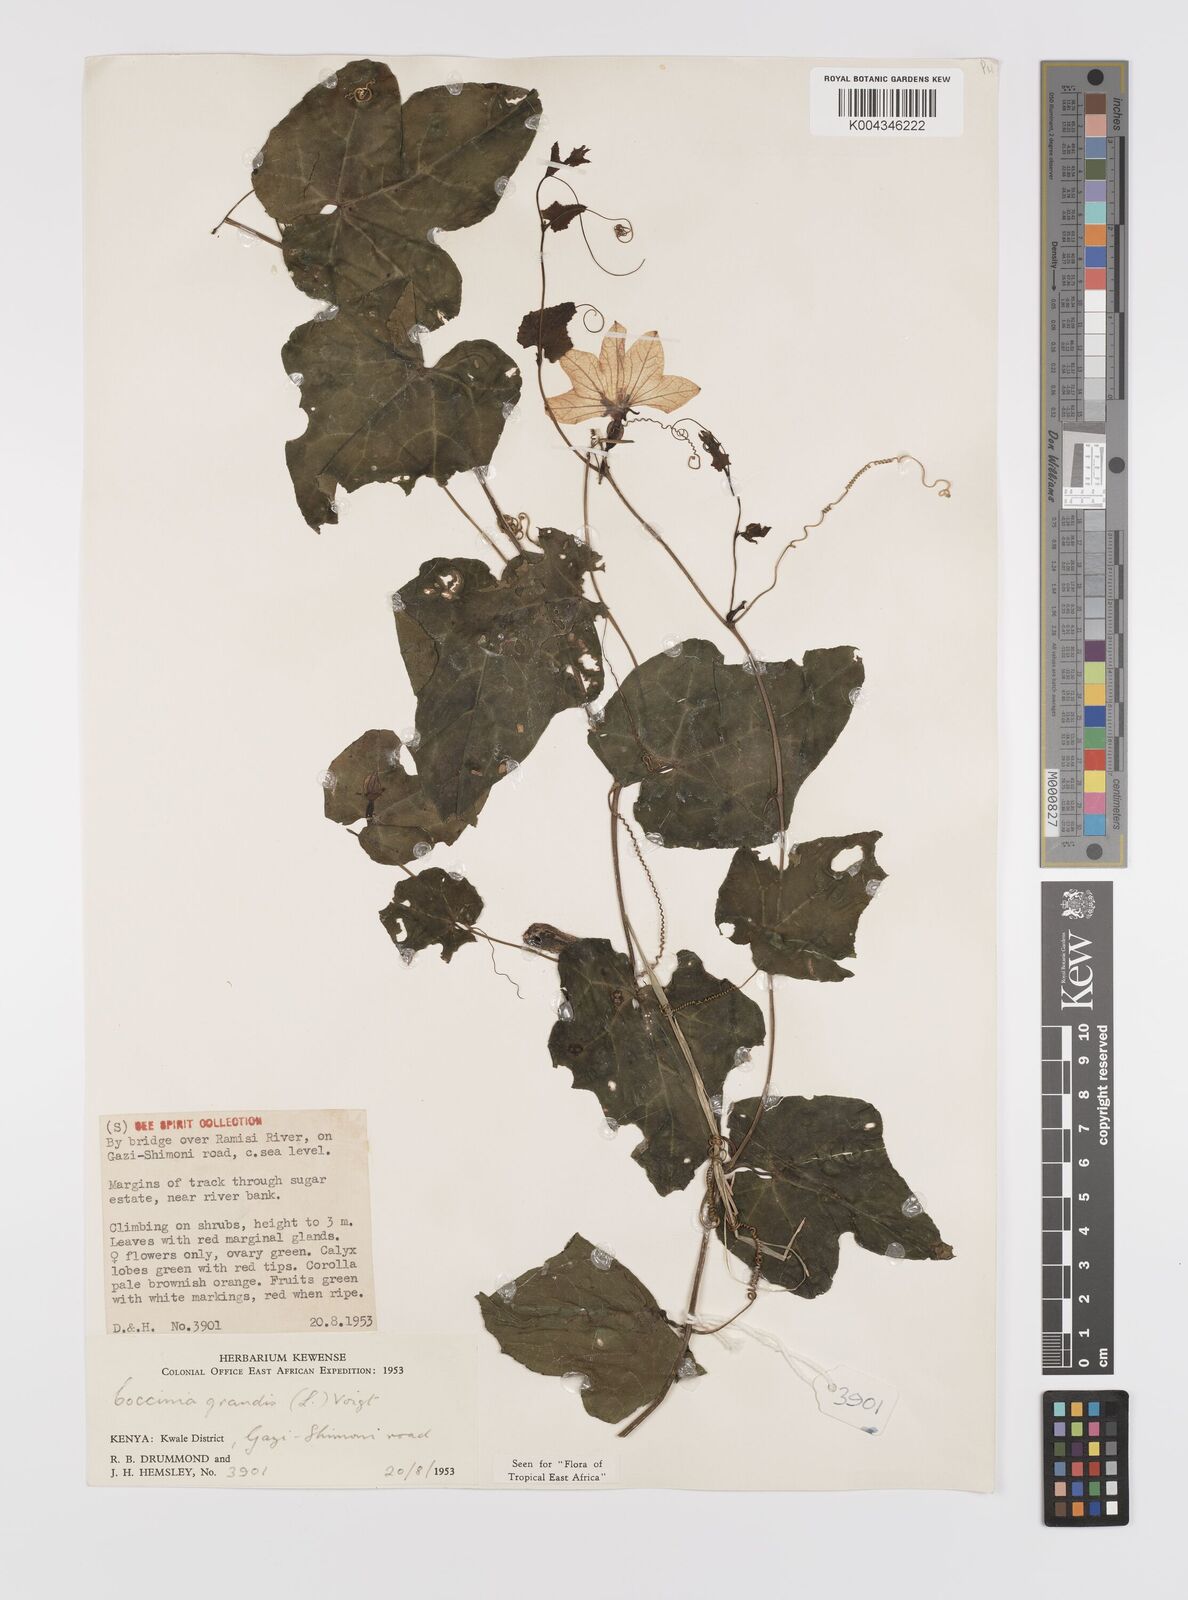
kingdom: Plantae
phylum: Tracheophyta
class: Magnoliopsida
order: Cucurbitales
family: Cucurbitaceae
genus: Coccinia
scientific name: Coccinia grandis
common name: Ivy gourd
